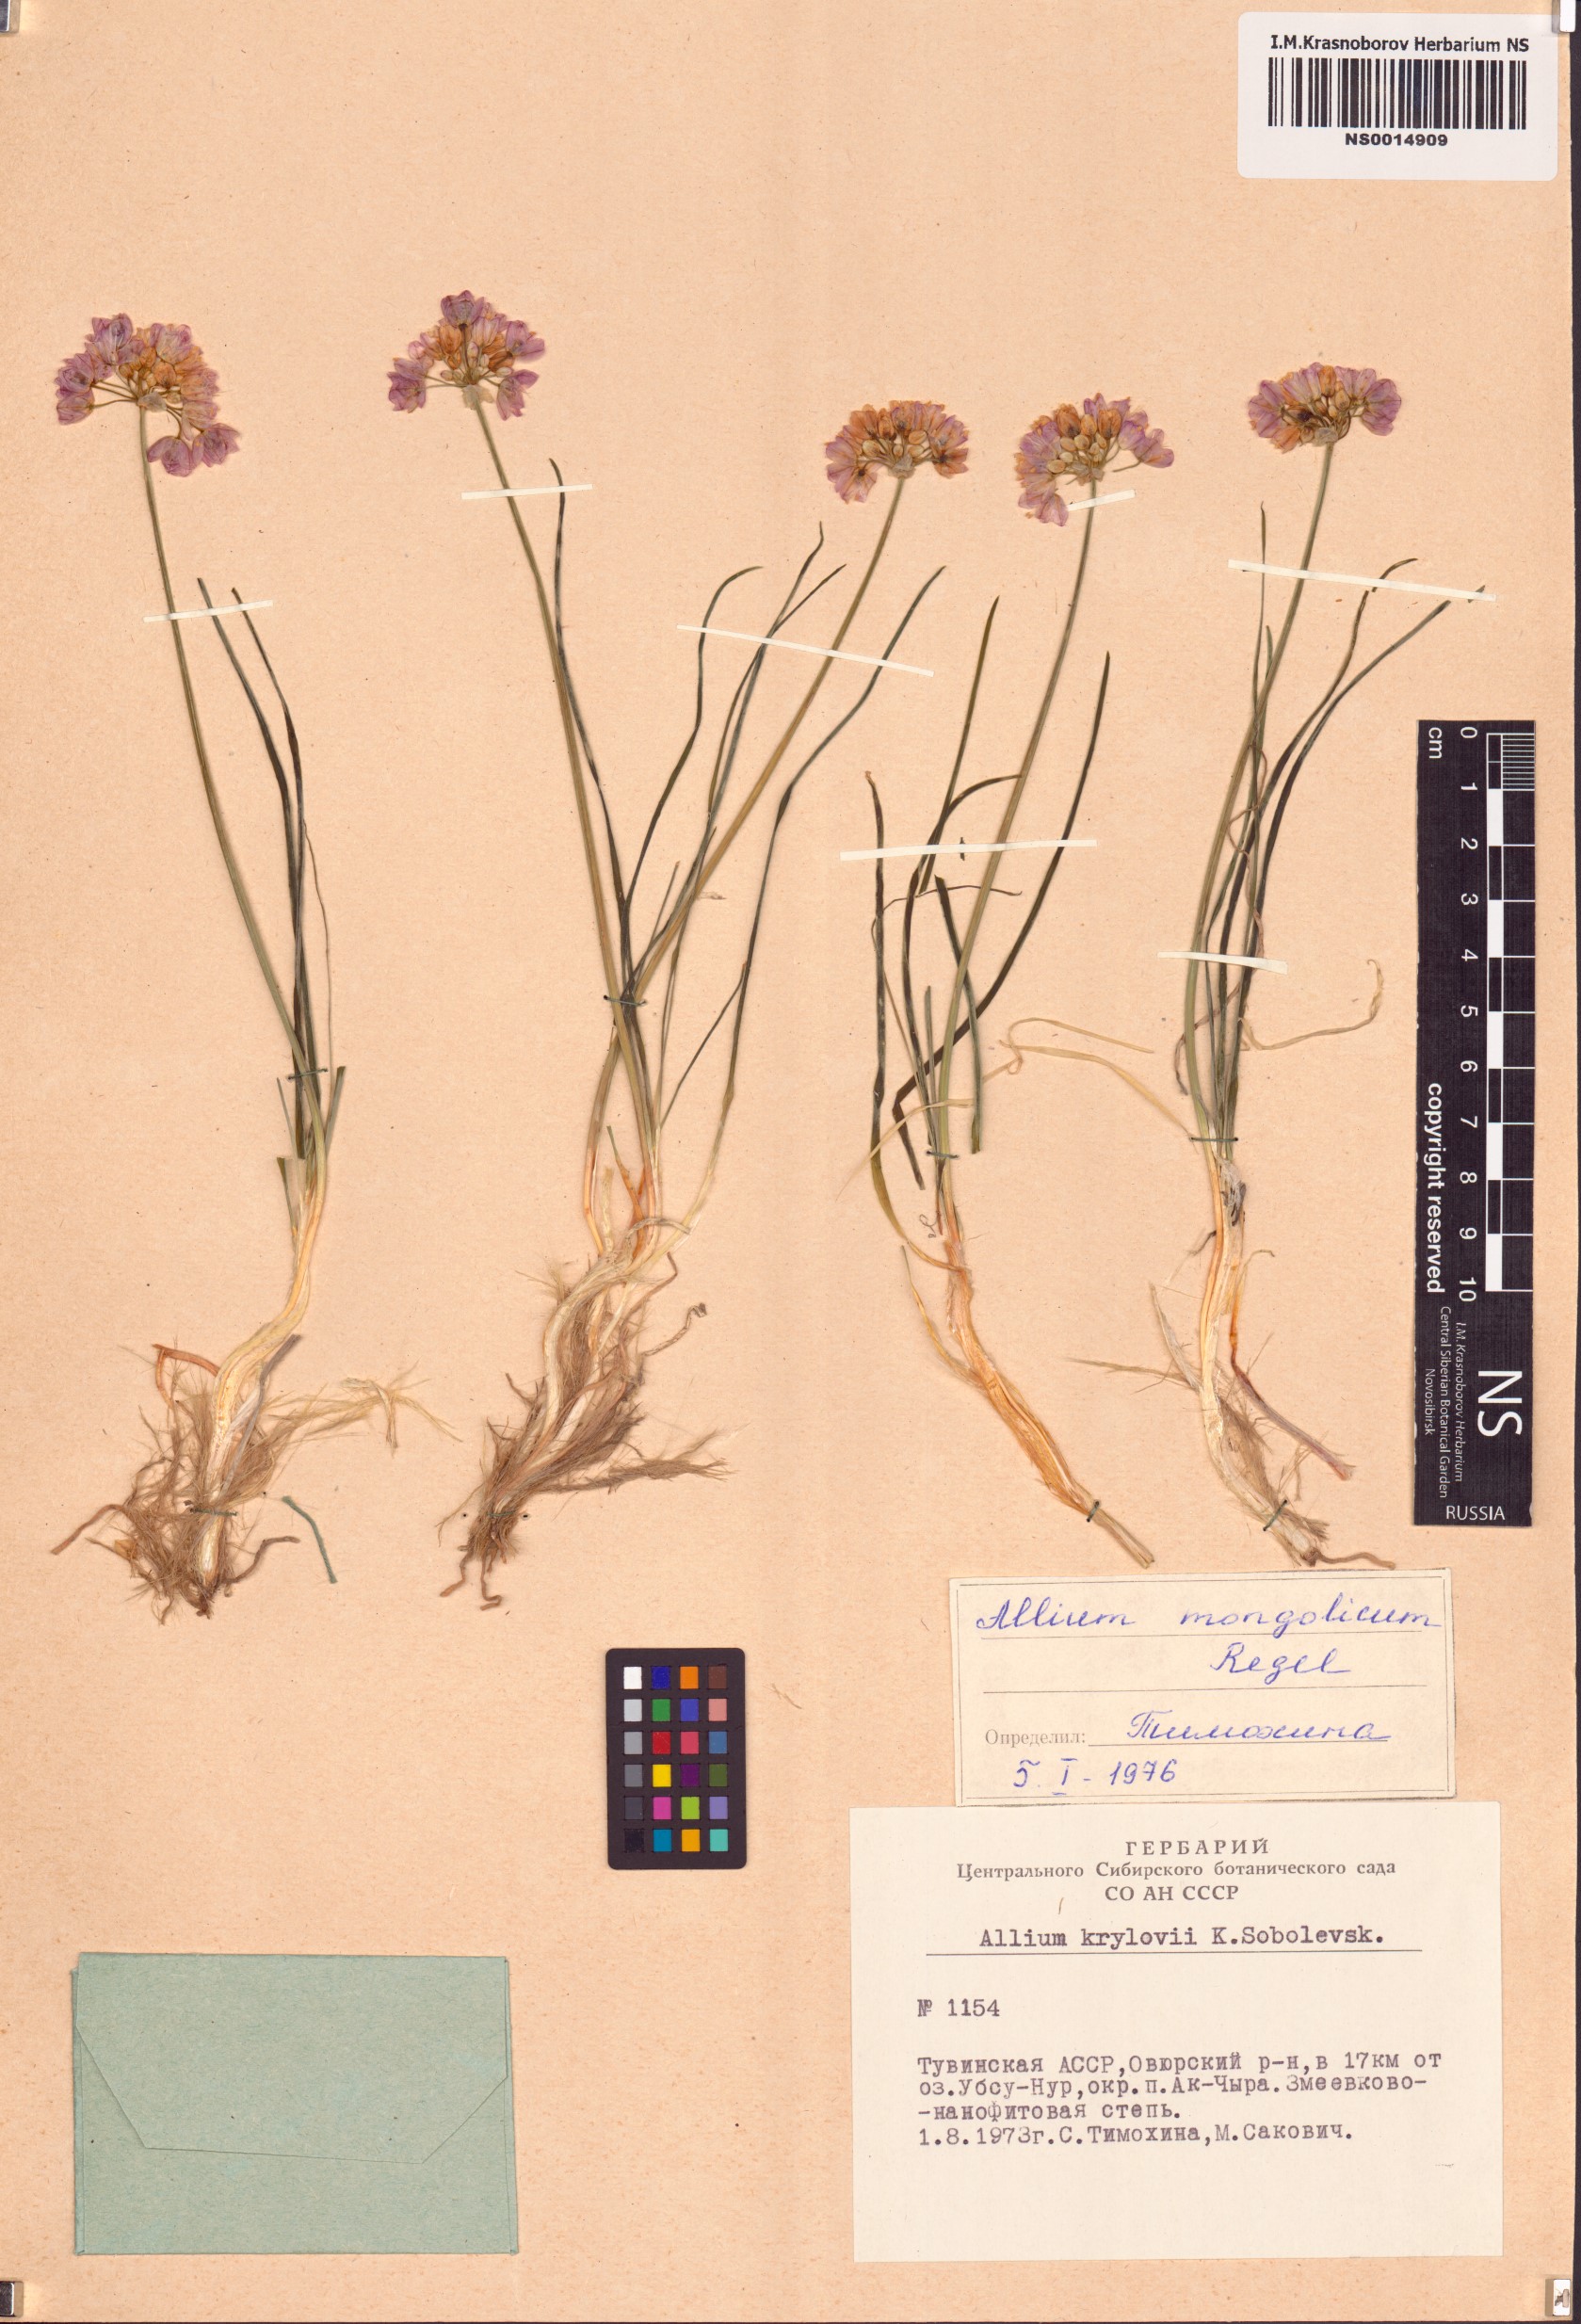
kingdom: Plantae
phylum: Tracheophyta
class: Liliopsida
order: Asparagales
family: Amaryllidaceae
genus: Allium
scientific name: Allium mongolicum
